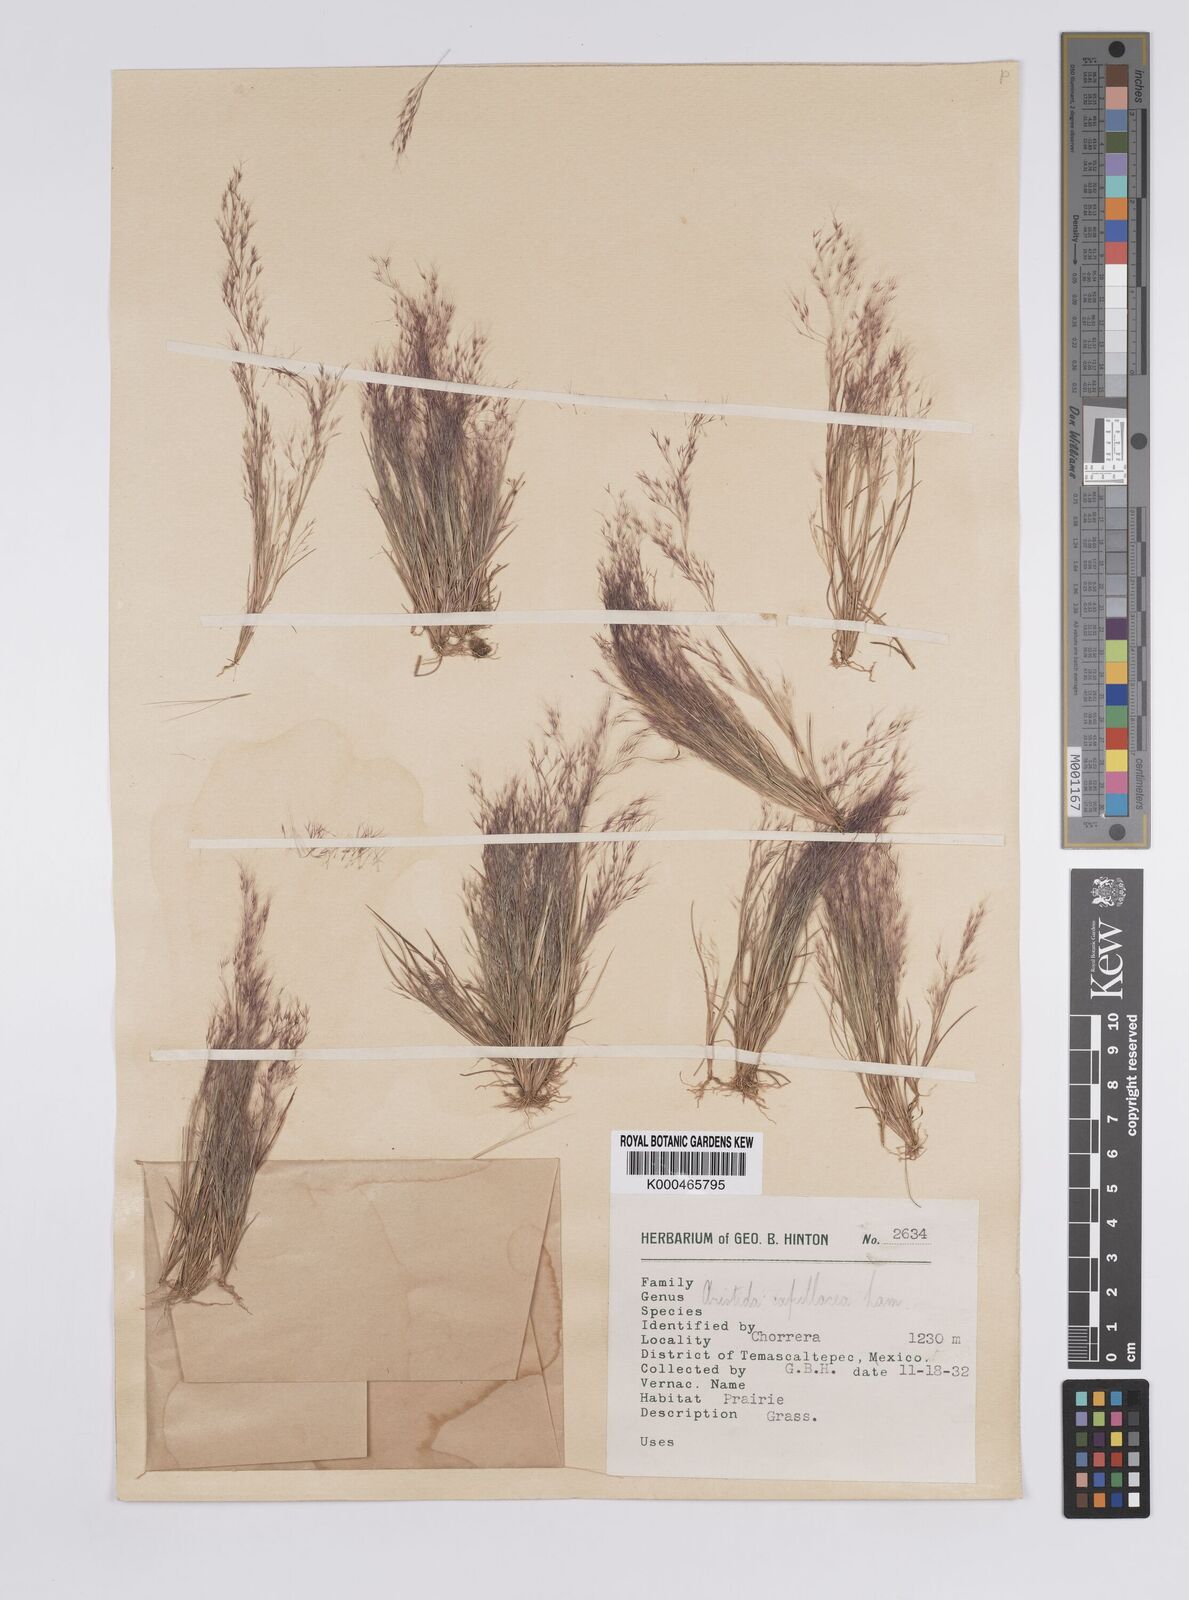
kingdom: Plantae
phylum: Tracheophyta
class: Liliopsida
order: Poales
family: Poaceae
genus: Aristida
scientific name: Aristida capillacea
